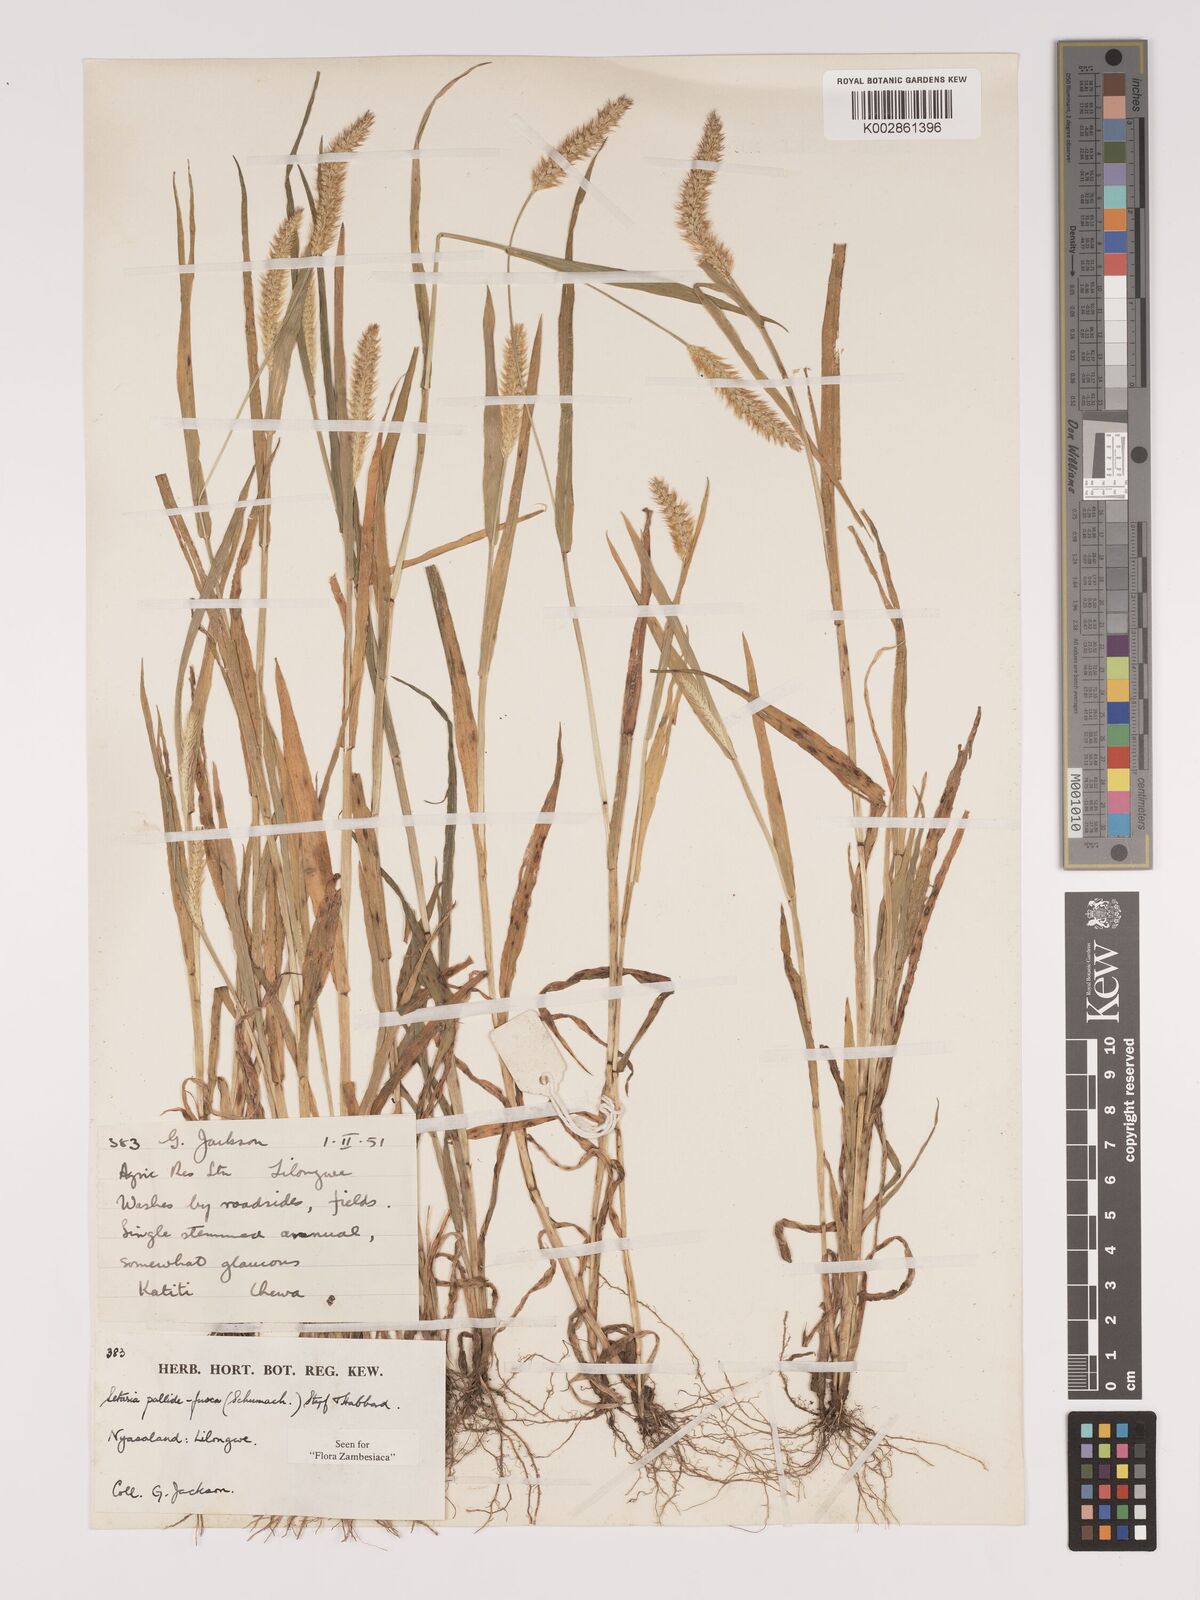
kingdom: Plantae
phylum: Tracheophyta
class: Liliopsida
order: Poales
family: Poaceae
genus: Setaria
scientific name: Setaria pumila
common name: Yellow bristle-grass
